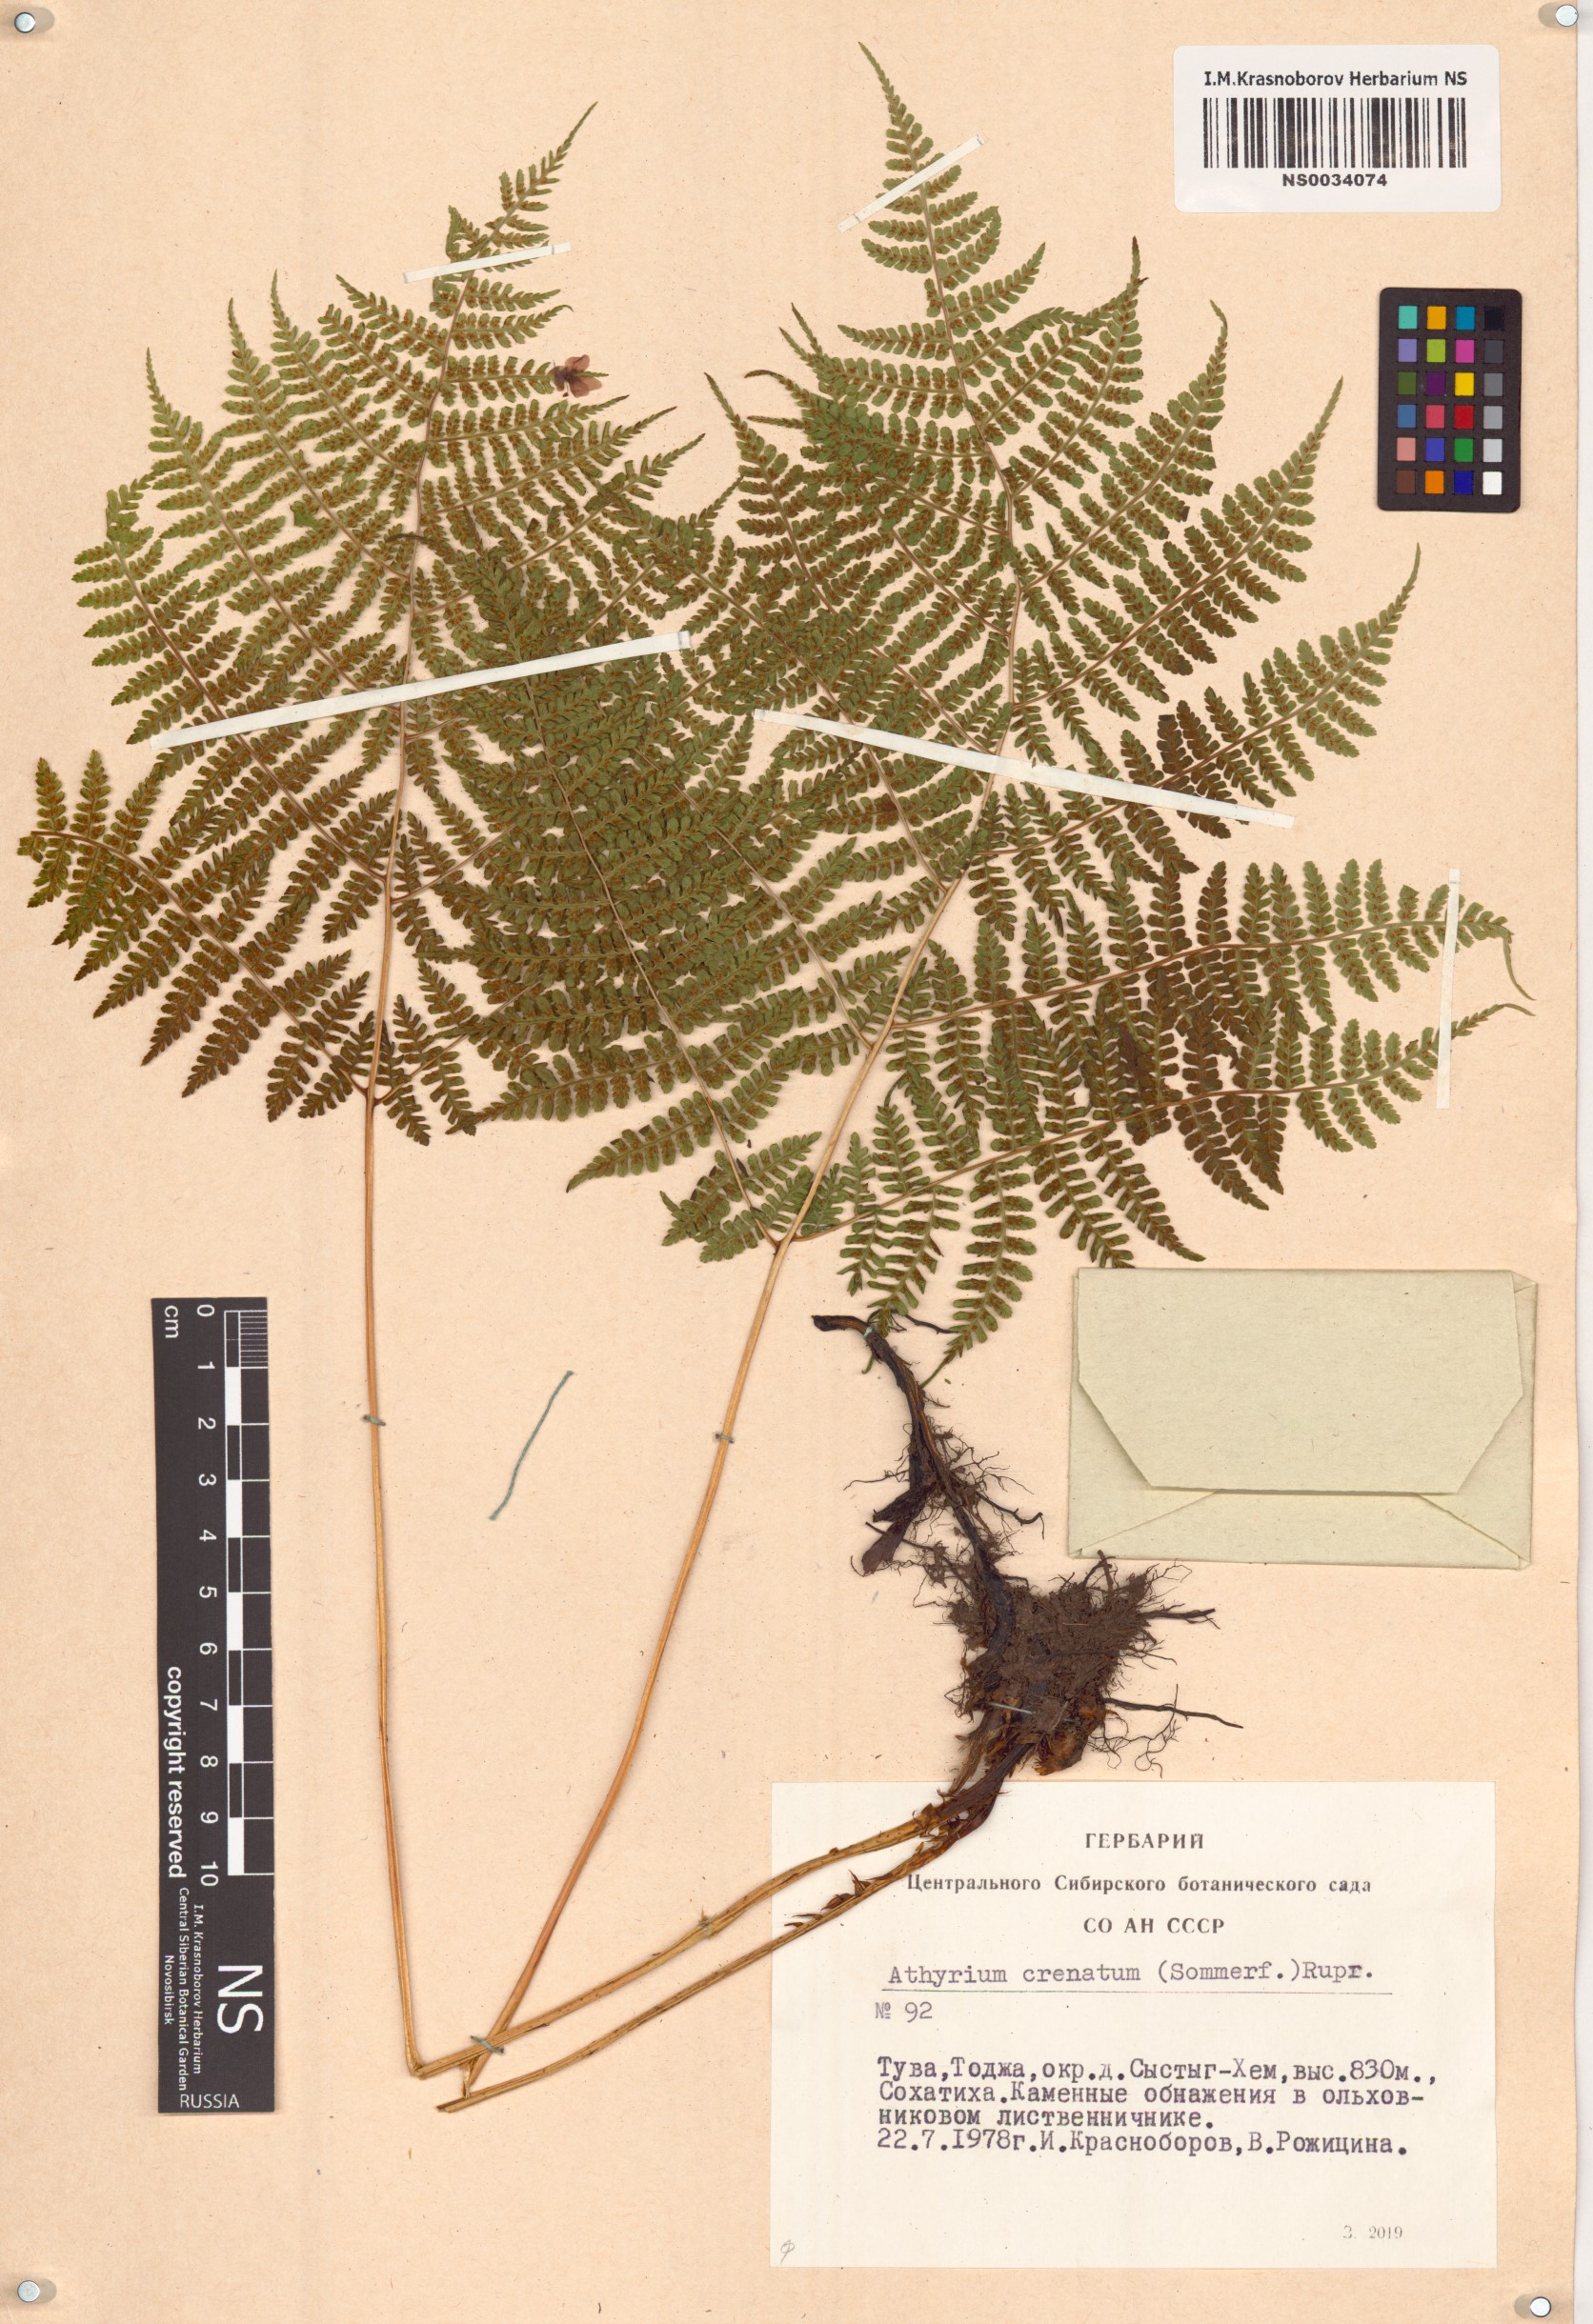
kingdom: Plantae
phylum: Tracheophyta
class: Polypodiopsida
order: Polypodiales
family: Athyriaceae
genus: Diplazium
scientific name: Diplazium sibiricum
